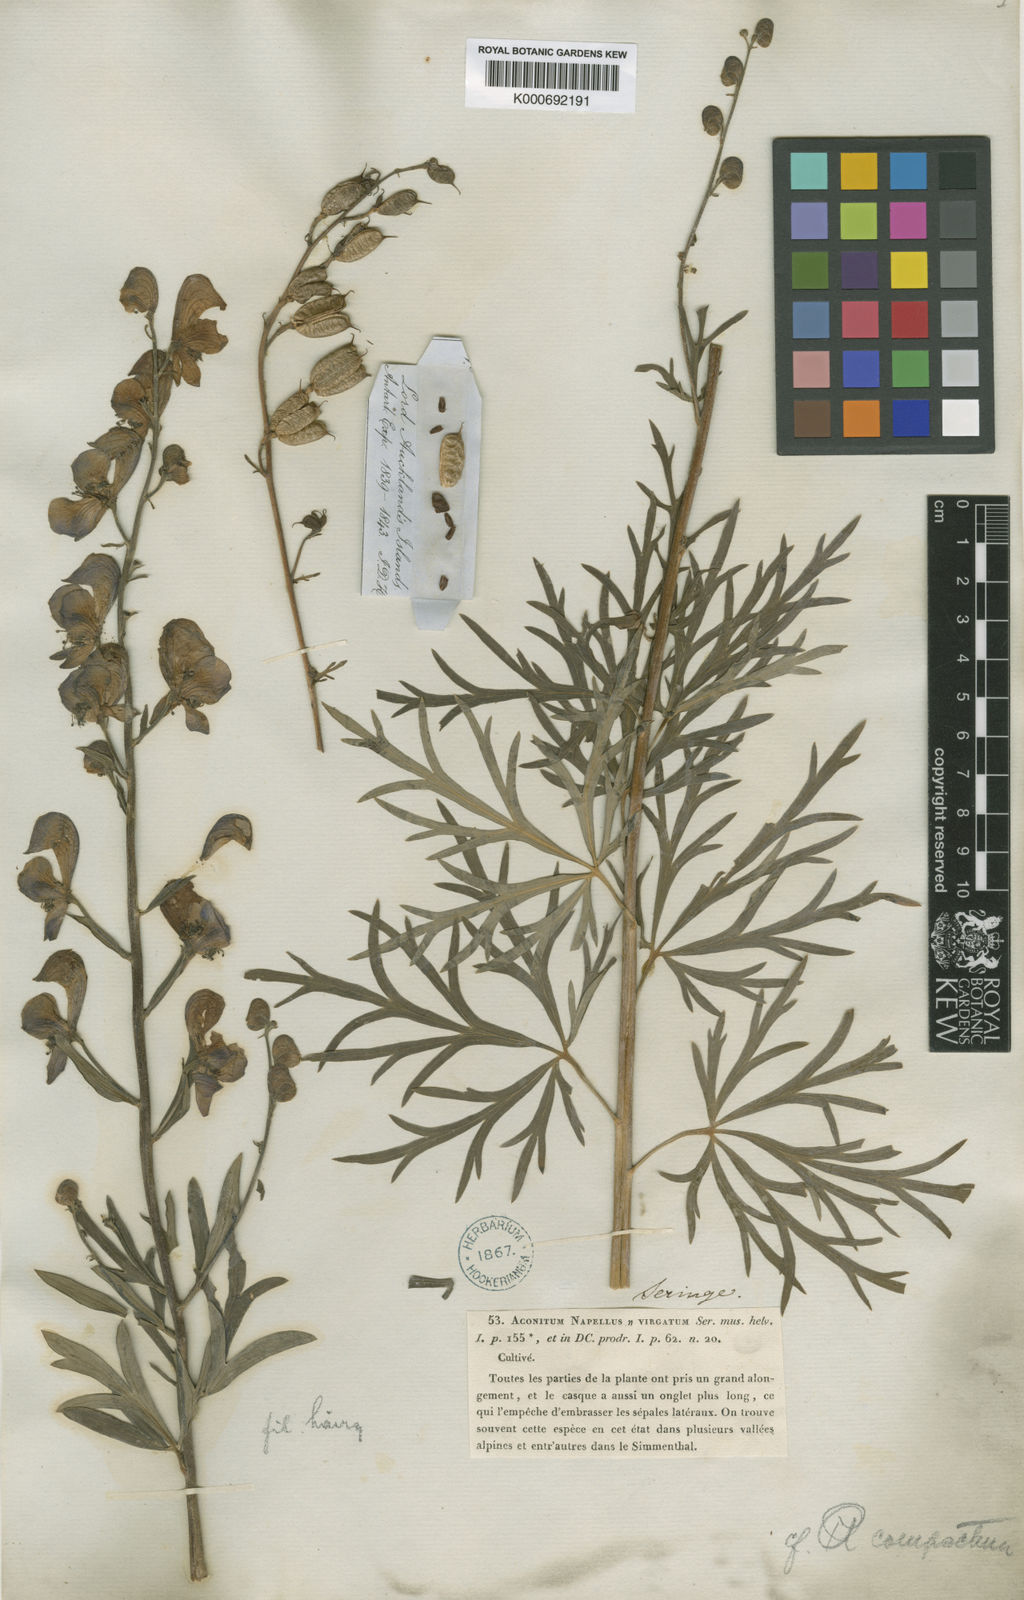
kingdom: Plantae
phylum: Tracheophyta
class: Magnoliopsida
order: Ranunculales
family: Ranunculaceae
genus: Aconitum
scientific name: Aconitum
